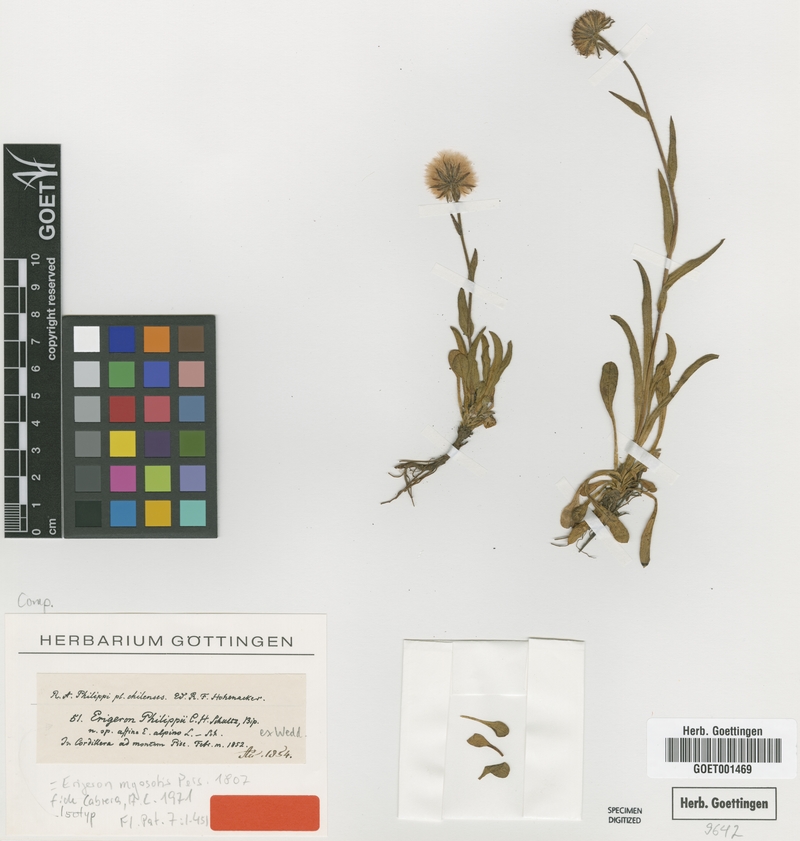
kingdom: Plantae
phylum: Tracheophyta
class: Magnoliopsida
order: Asterales
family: Asteraceae
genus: Erigeron
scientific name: Erigeron myosotis
